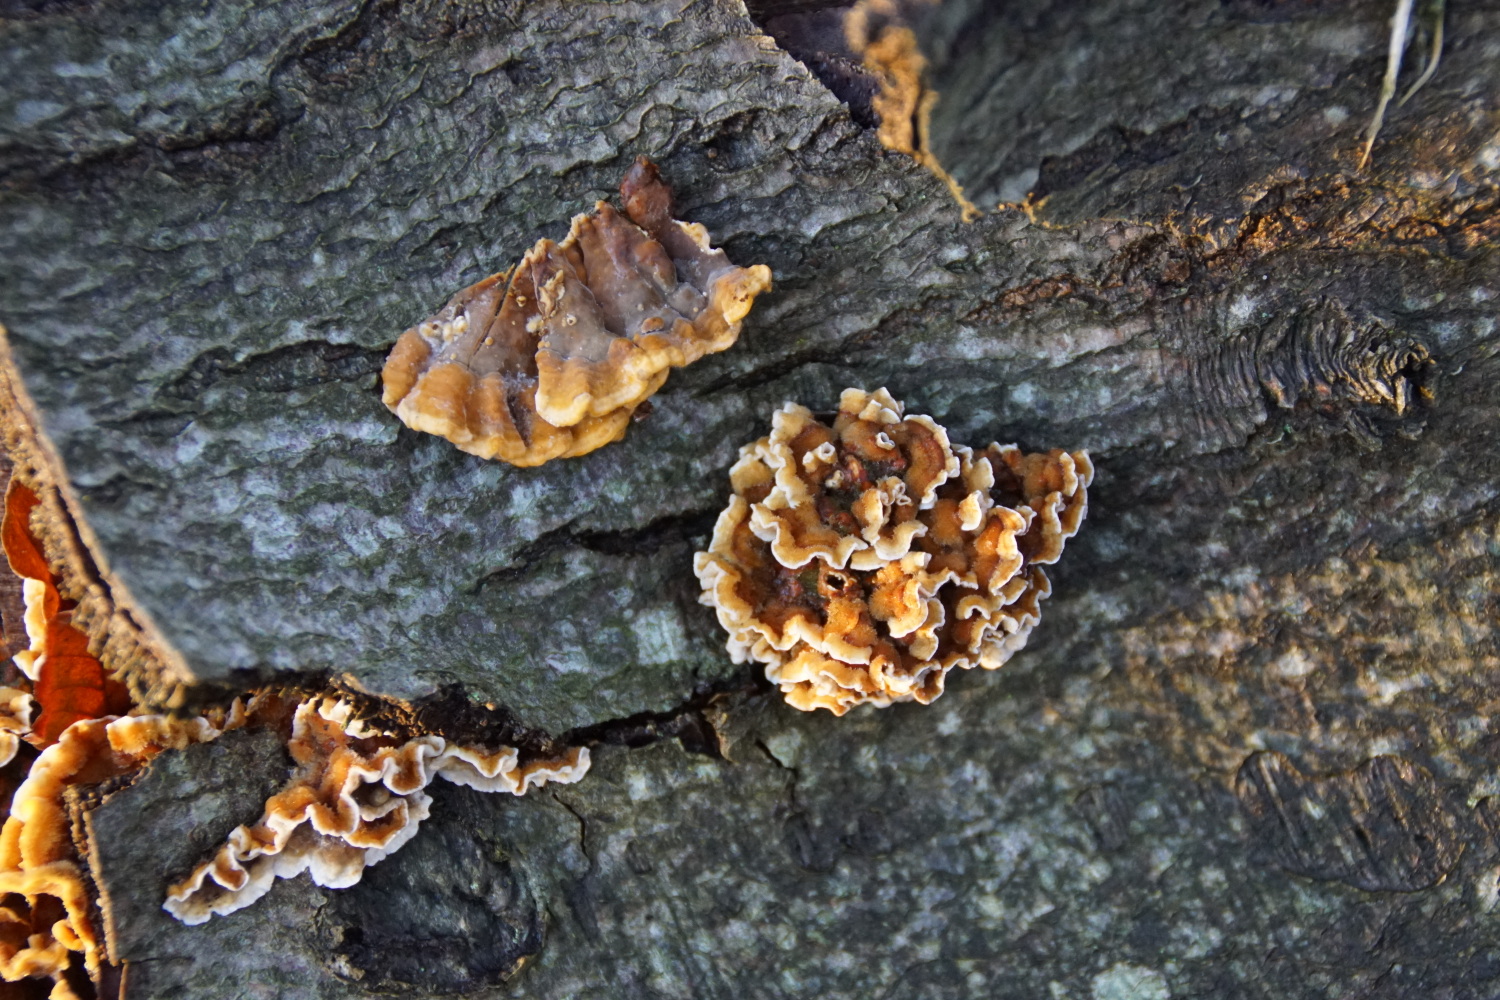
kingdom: Fungi
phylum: Basidiomycota
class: Agaricomycetes
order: Russulales
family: Stereaceae
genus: Stereum
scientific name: Stereum hirsutum
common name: håret lædersvamp
